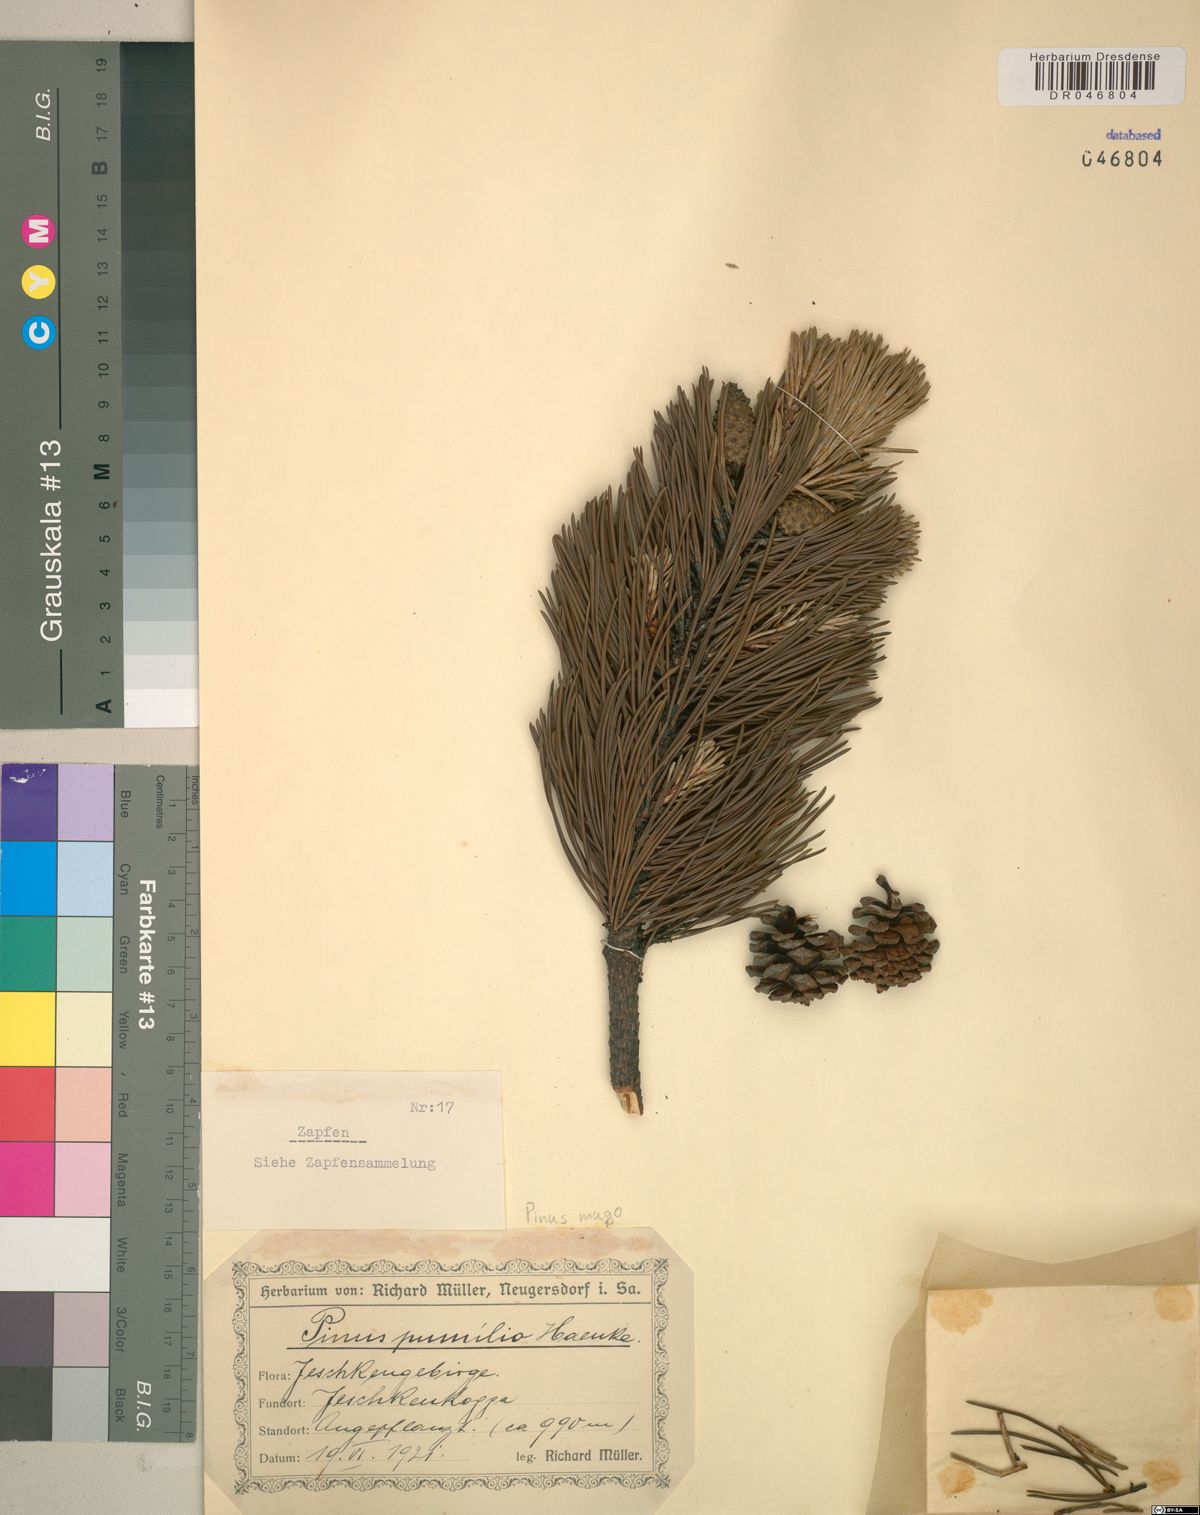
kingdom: Plantae
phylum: Tracheophyta
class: Pinopsida
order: Pinales
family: Pinaceae
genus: Pinus
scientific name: Pinus mugo
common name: Mugo pine
